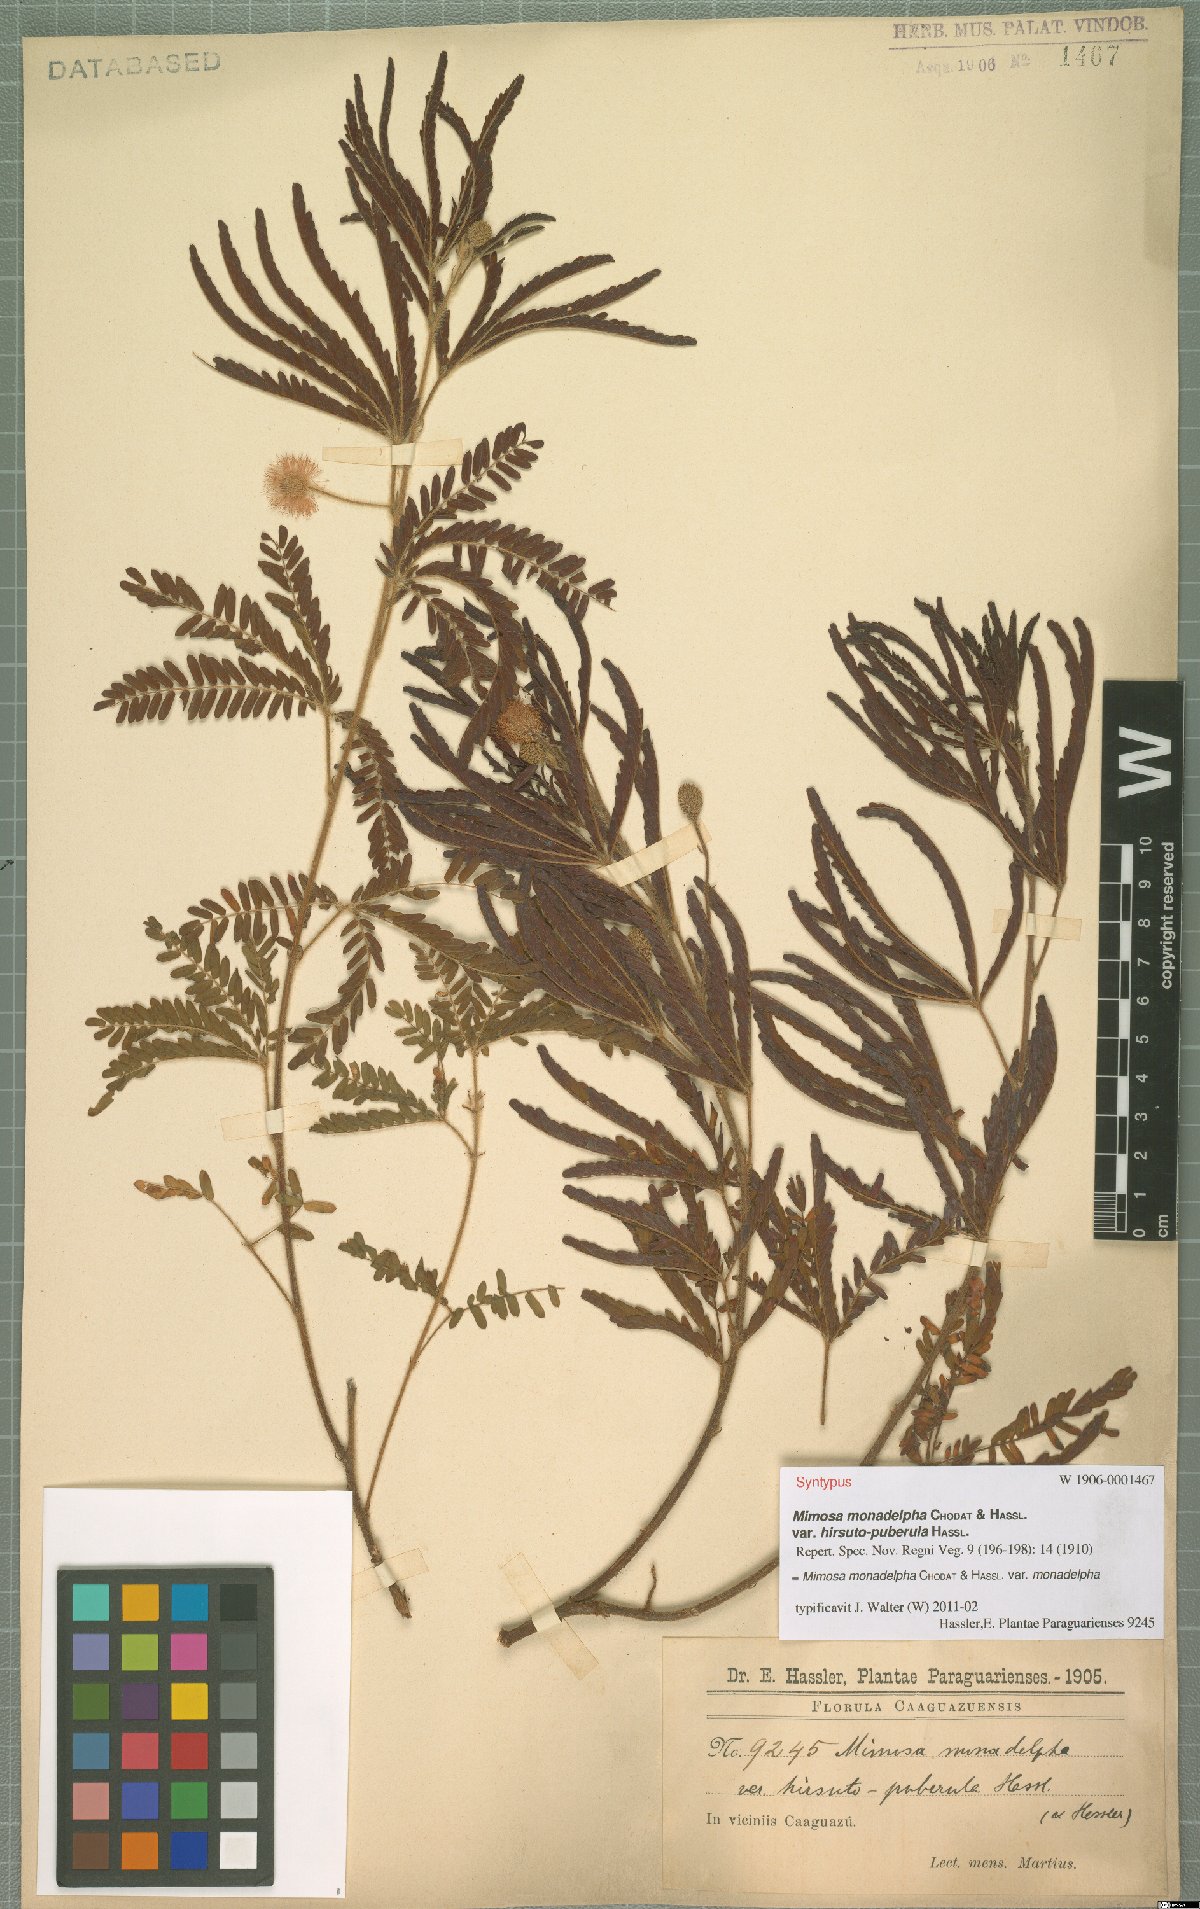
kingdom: Plantae
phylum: Tracheophyta
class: Magnoliopsida
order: Fabales
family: Fabaceae
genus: Mimosa
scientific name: Mimosa monodelpha
